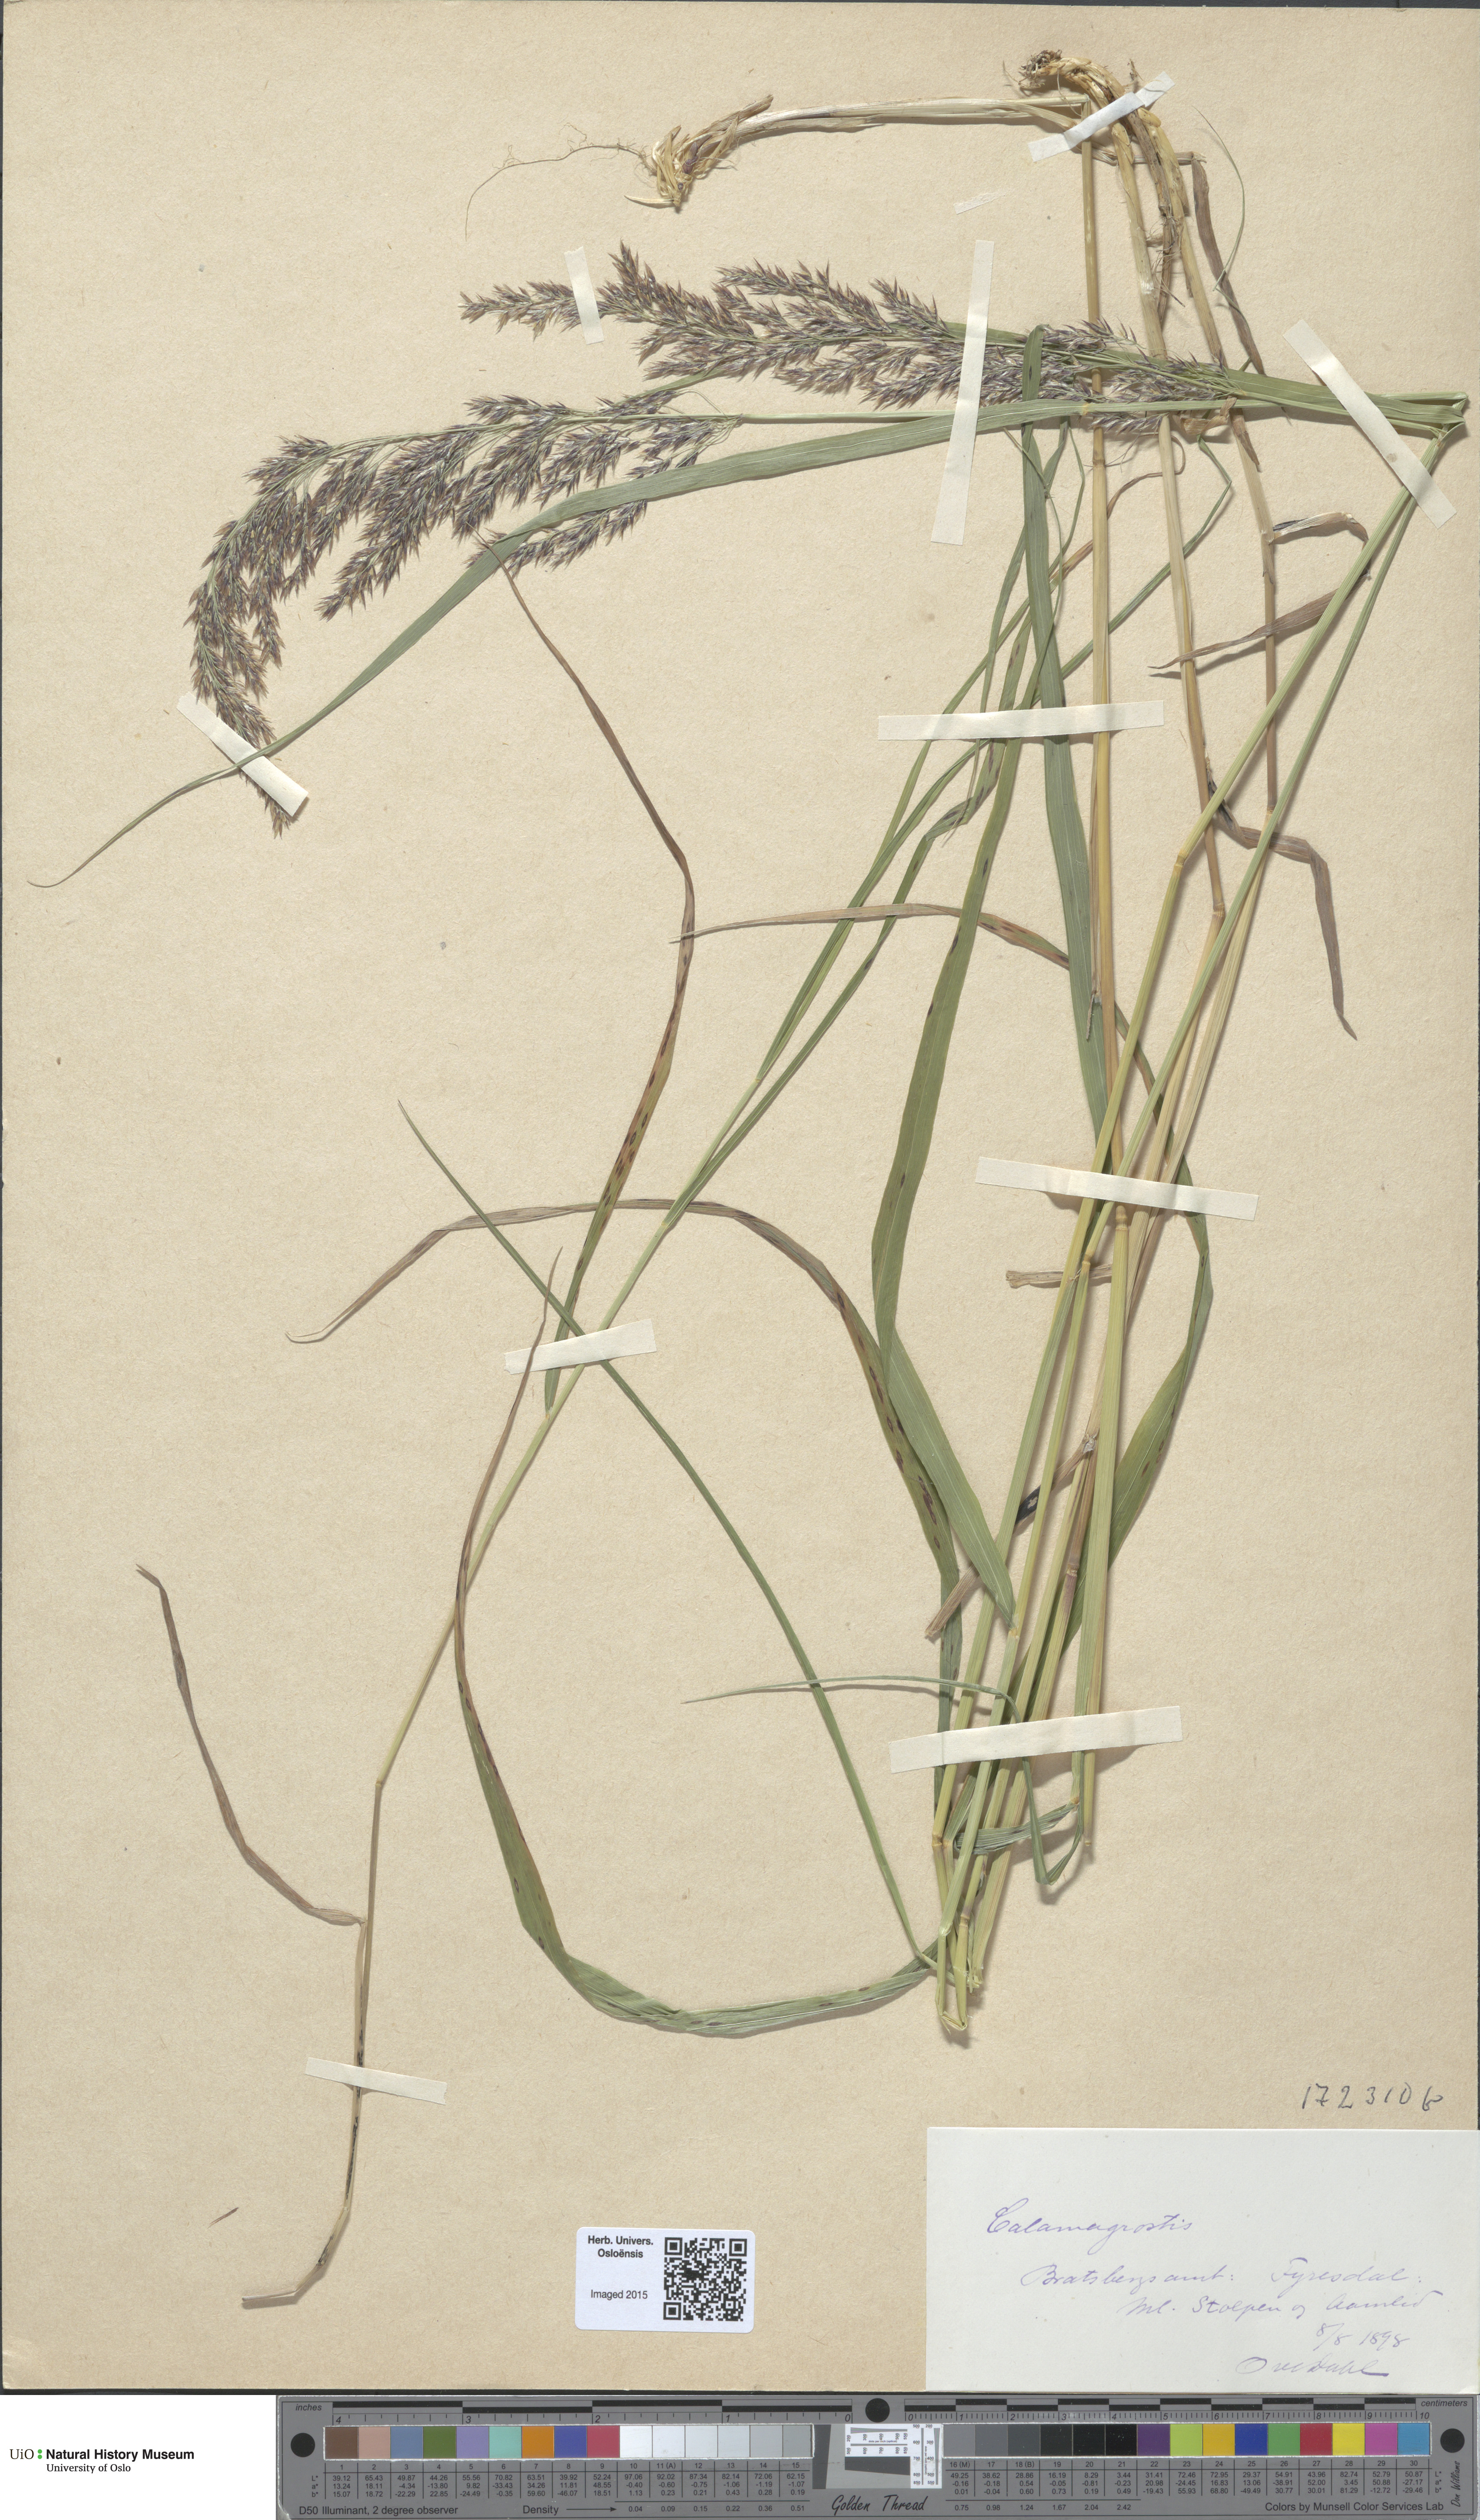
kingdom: Plantae
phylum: Tracheophyta
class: Liliopsida
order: Poales
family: Poaceae
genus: Calamagrostis
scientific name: Calamagrostis purpurea
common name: Scandinavian small-reed
